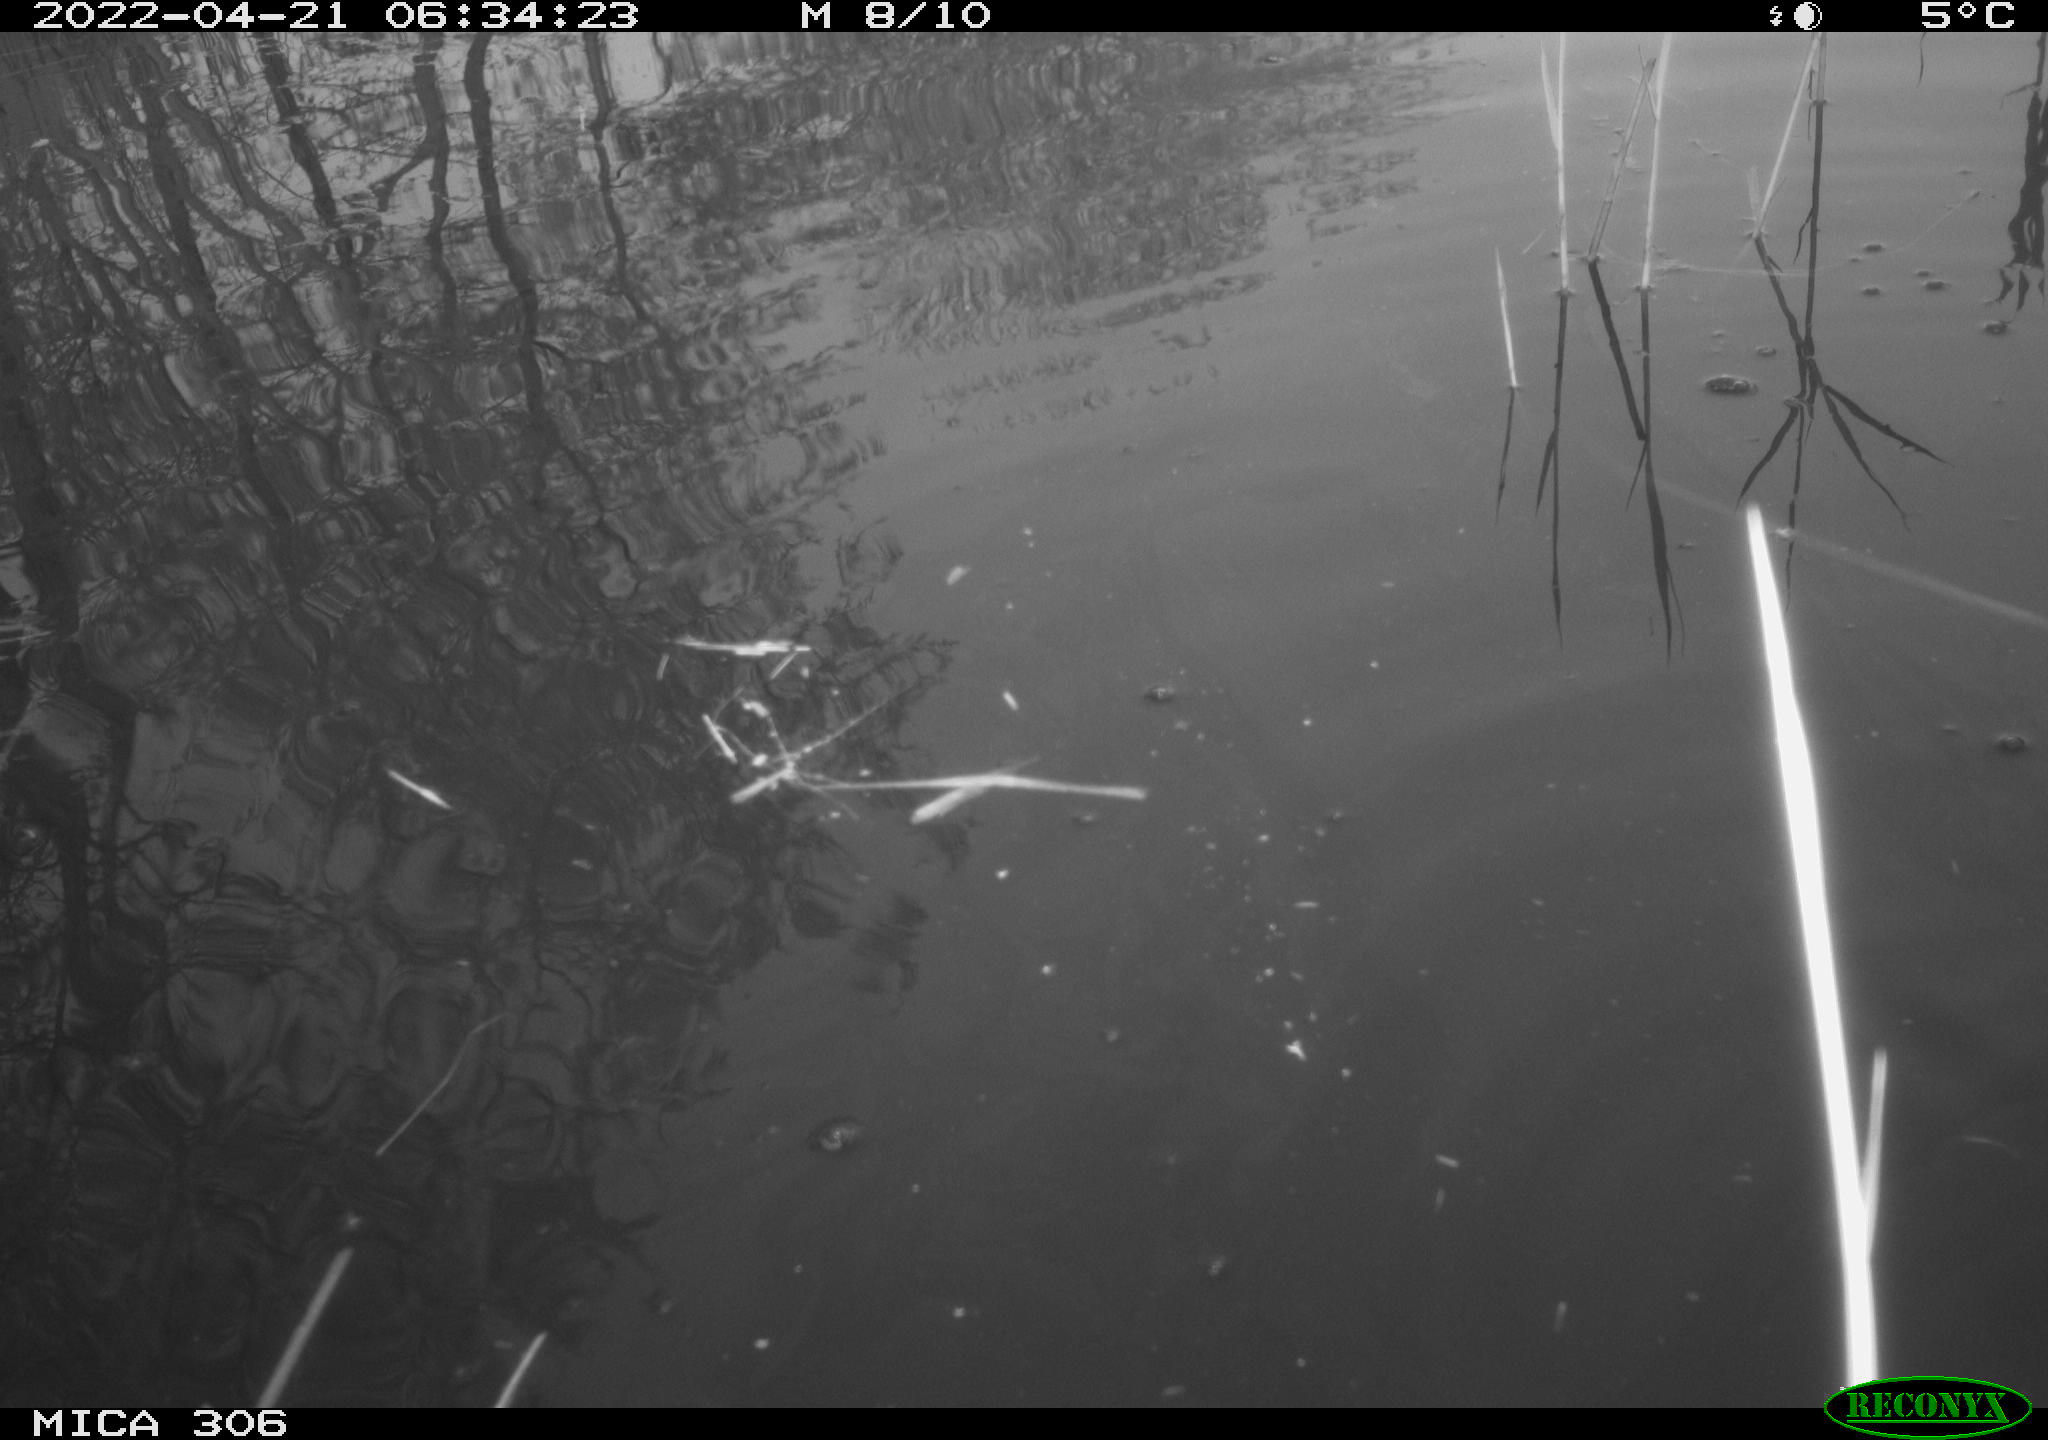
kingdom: Animalia
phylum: Chordata
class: Aves
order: Gruiformes
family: Rallidae
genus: Gallinula
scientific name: Gallinula chloropus
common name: Common moorhen
